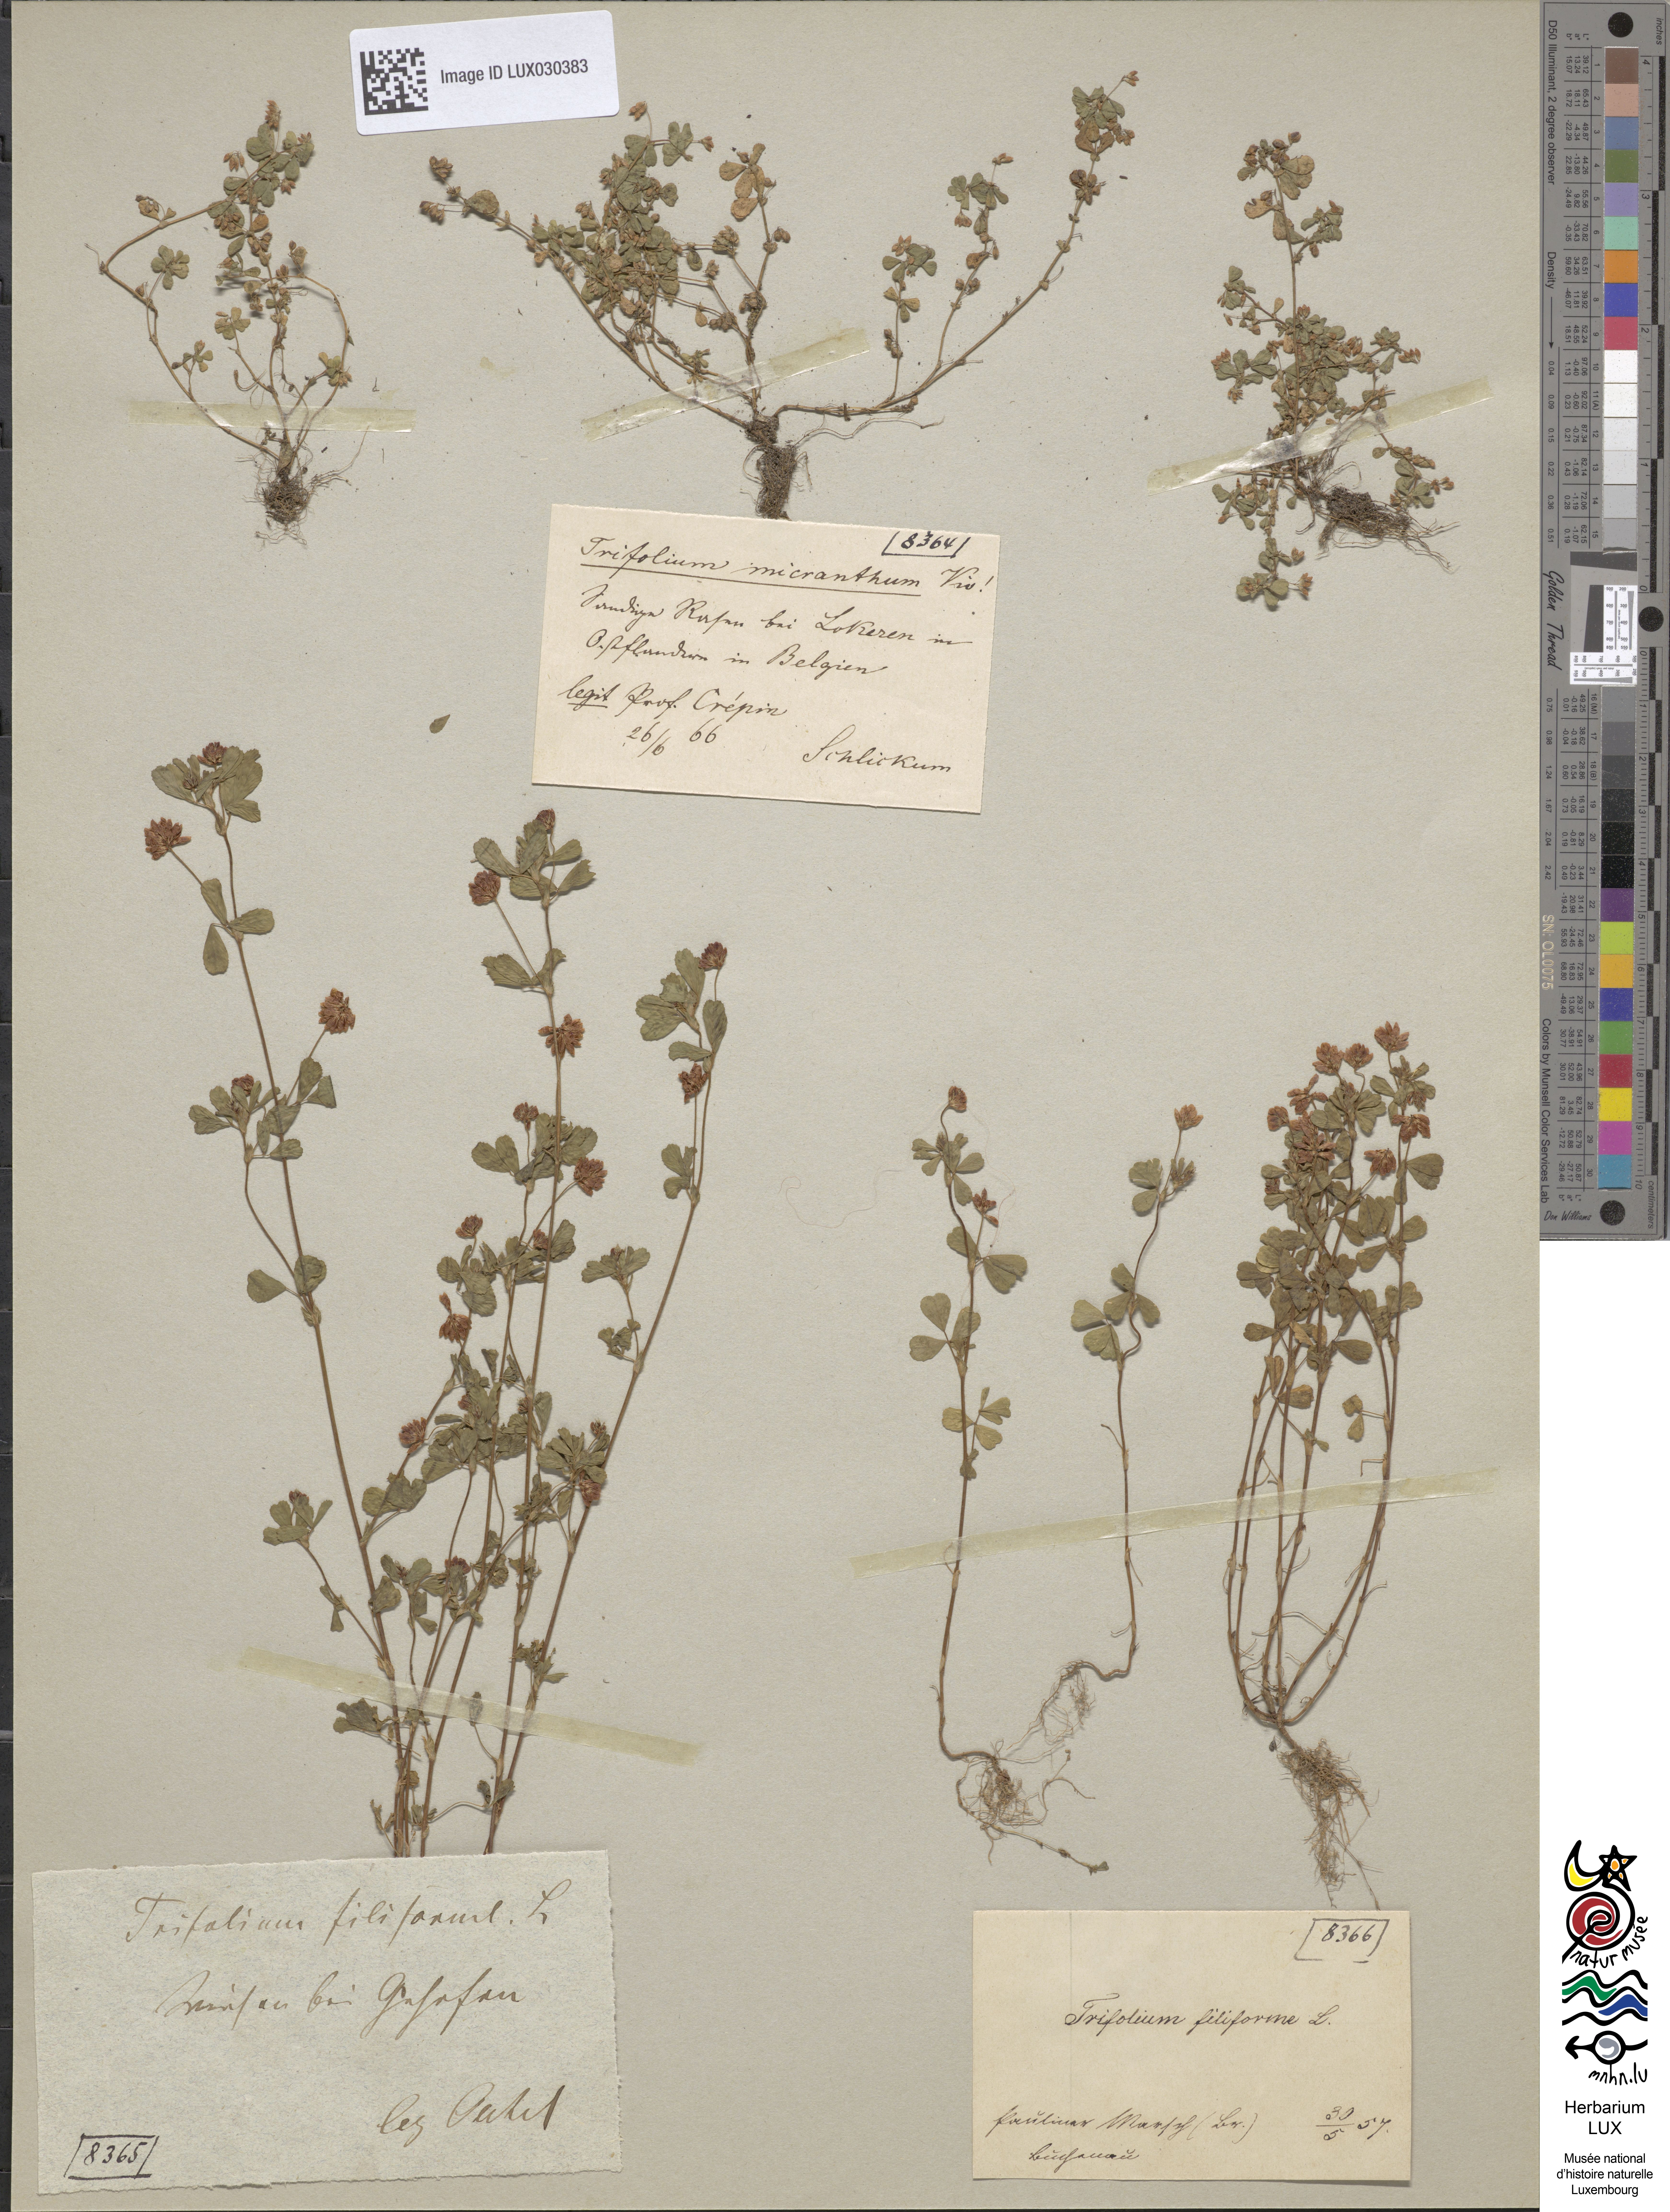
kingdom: Plantae
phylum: Tracheophyta
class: Magnoliopsida
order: Fabales
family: Fabaceae
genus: Trifolium
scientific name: Trifolium micranthum
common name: Slender trefoil
